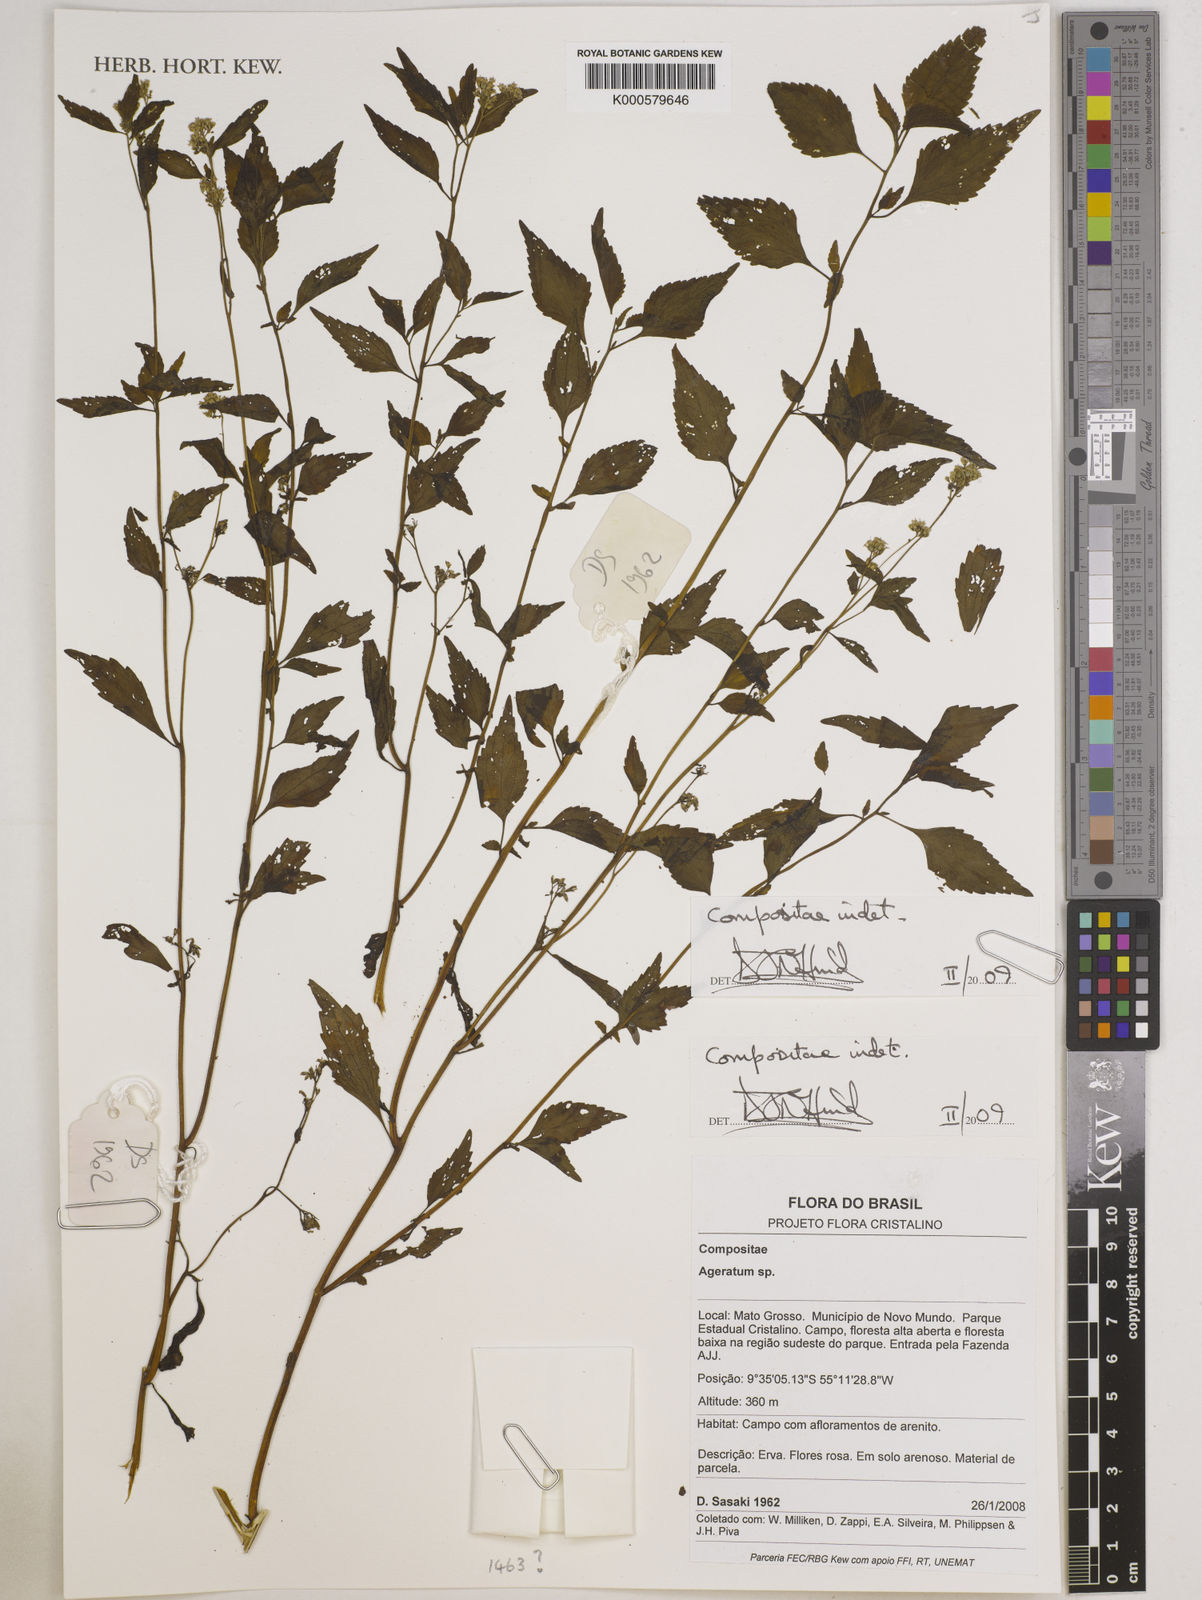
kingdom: Plantae
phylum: Tracheophyta
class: Magnoliopsida
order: Asterales
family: Asteraceae
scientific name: Asteraceae
